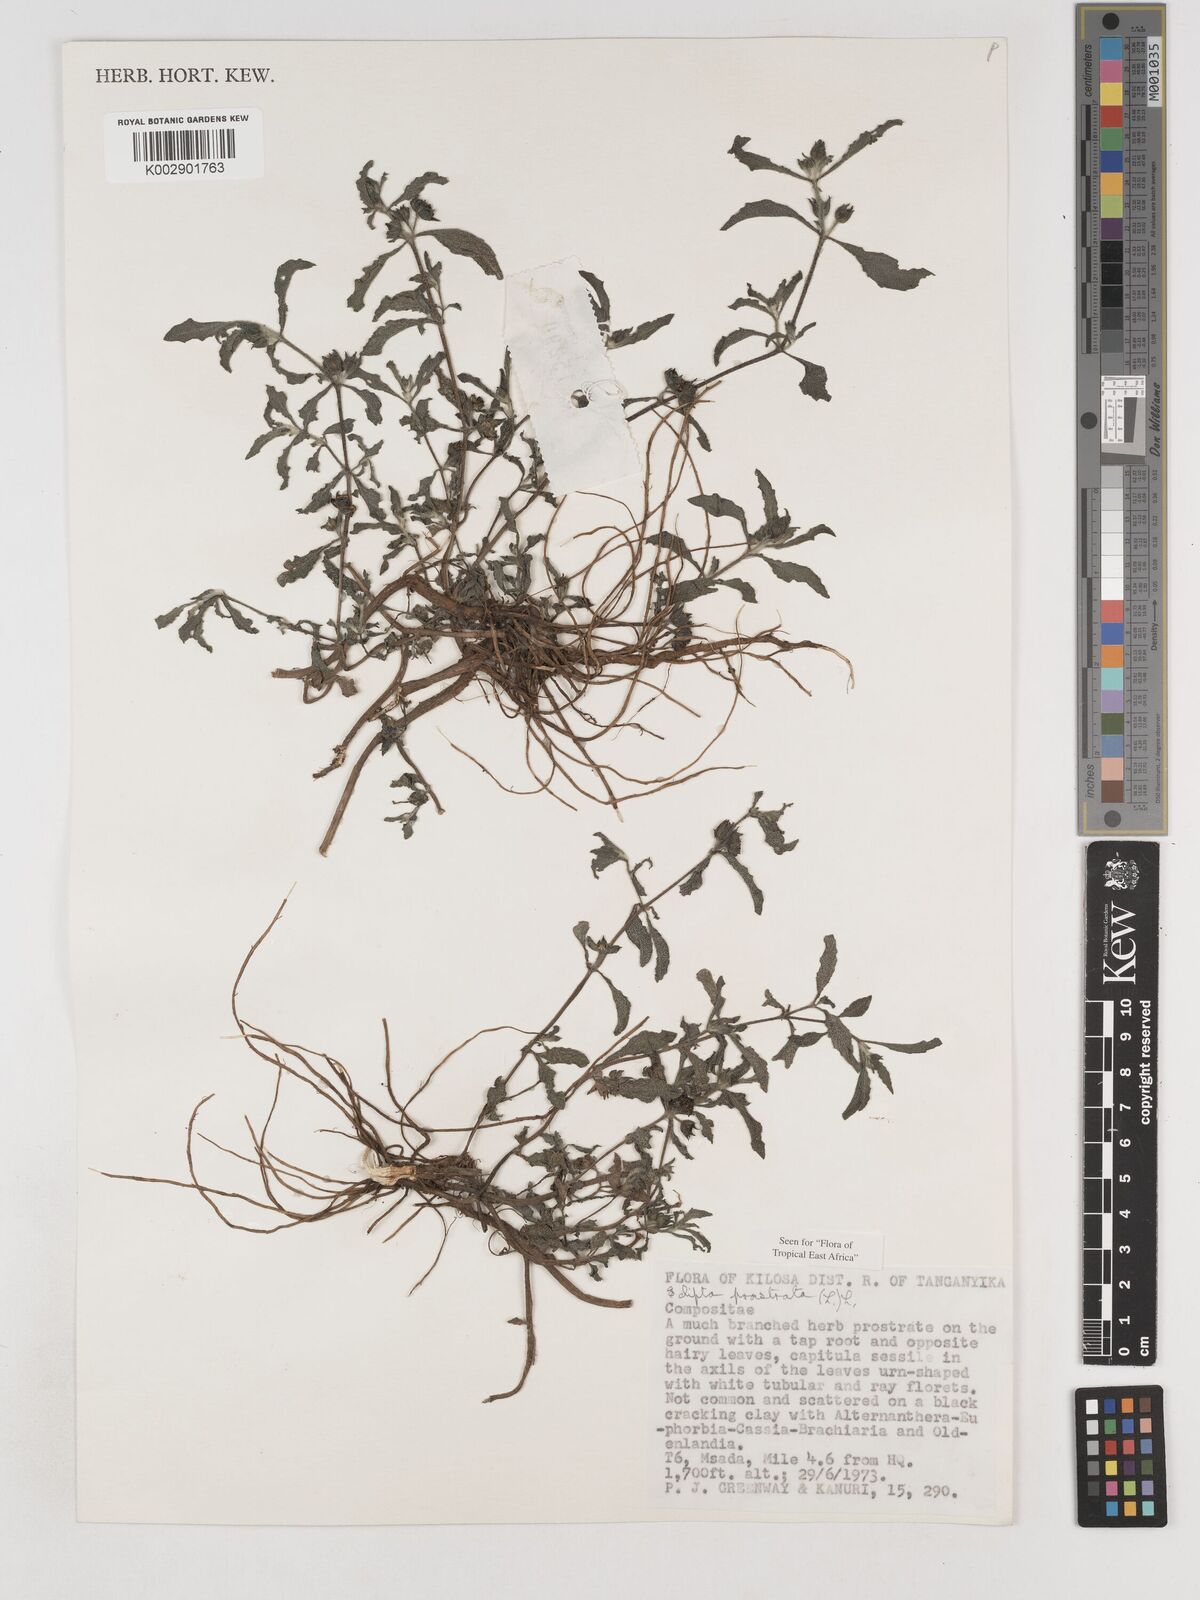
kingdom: Plantae
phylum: Tracheophyta
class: Magnoliopsida
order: Asterales
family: Asteraceae
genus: Eclipta
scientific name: Eclipta alba
